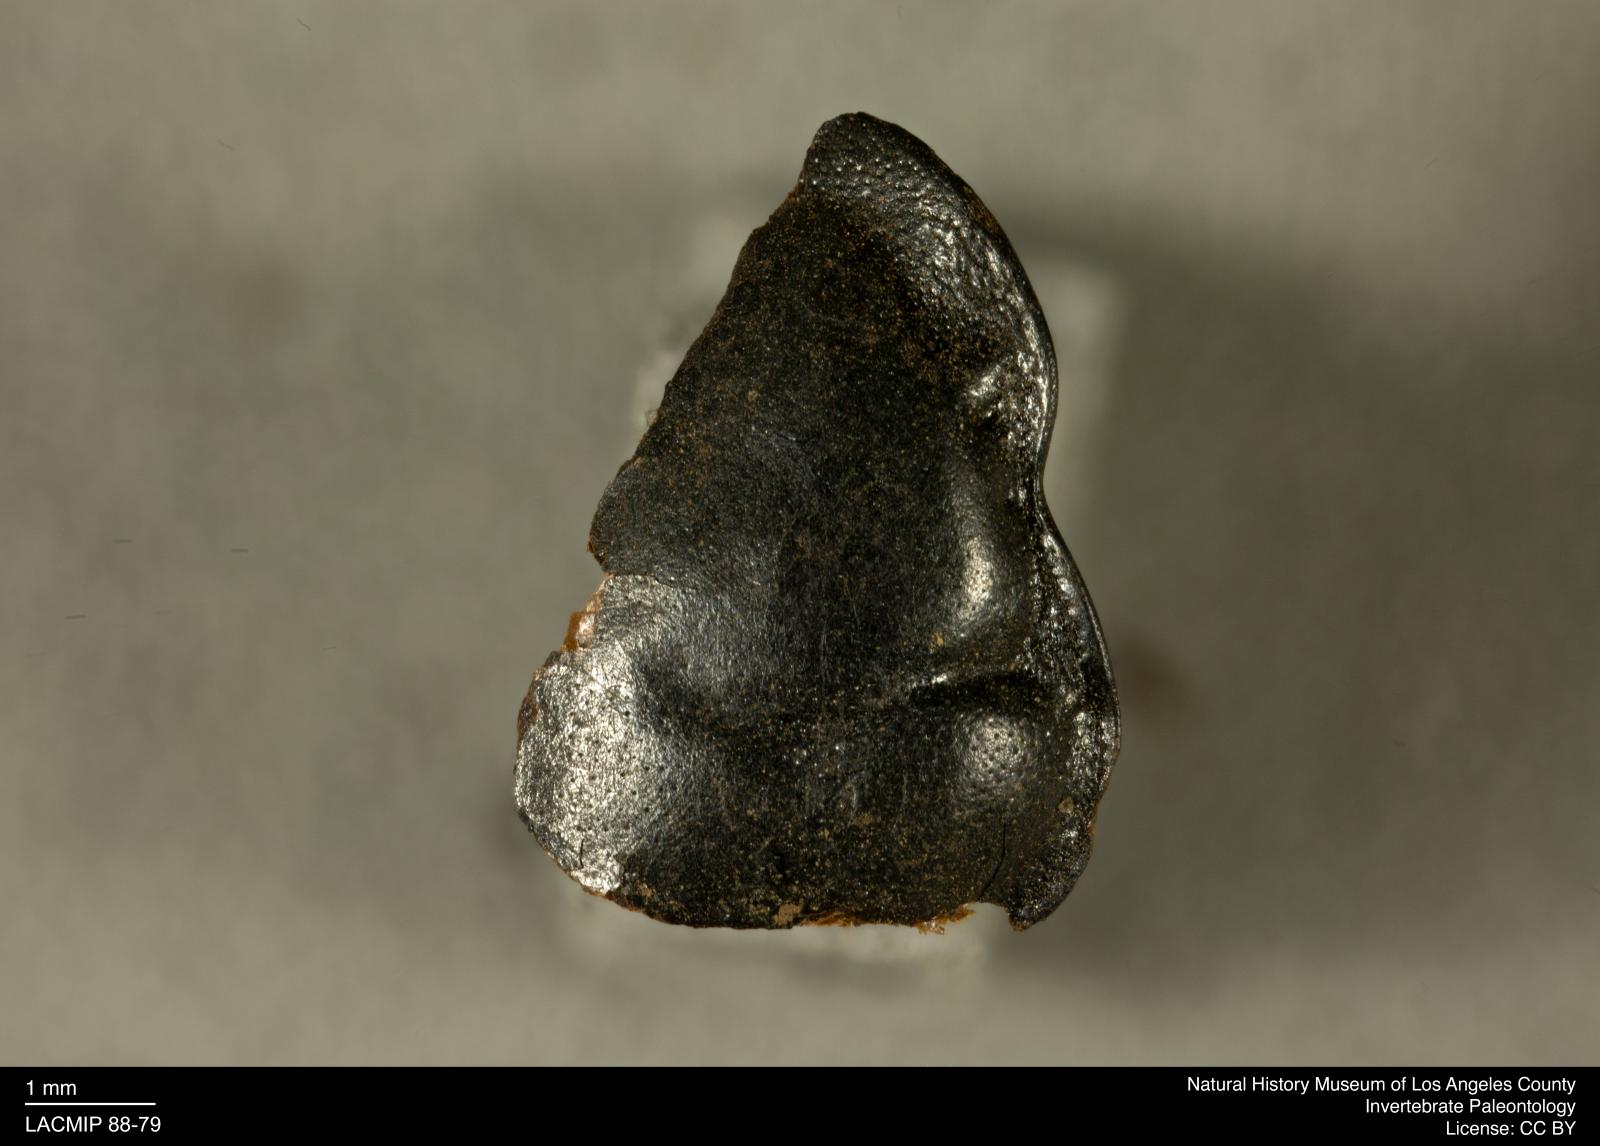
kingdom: Animalia
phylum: Arthropoda
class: Insecta
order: Coleoptera
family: Staphylinidae
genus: Nicrophorus
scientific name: Nicrophorus marginatus
